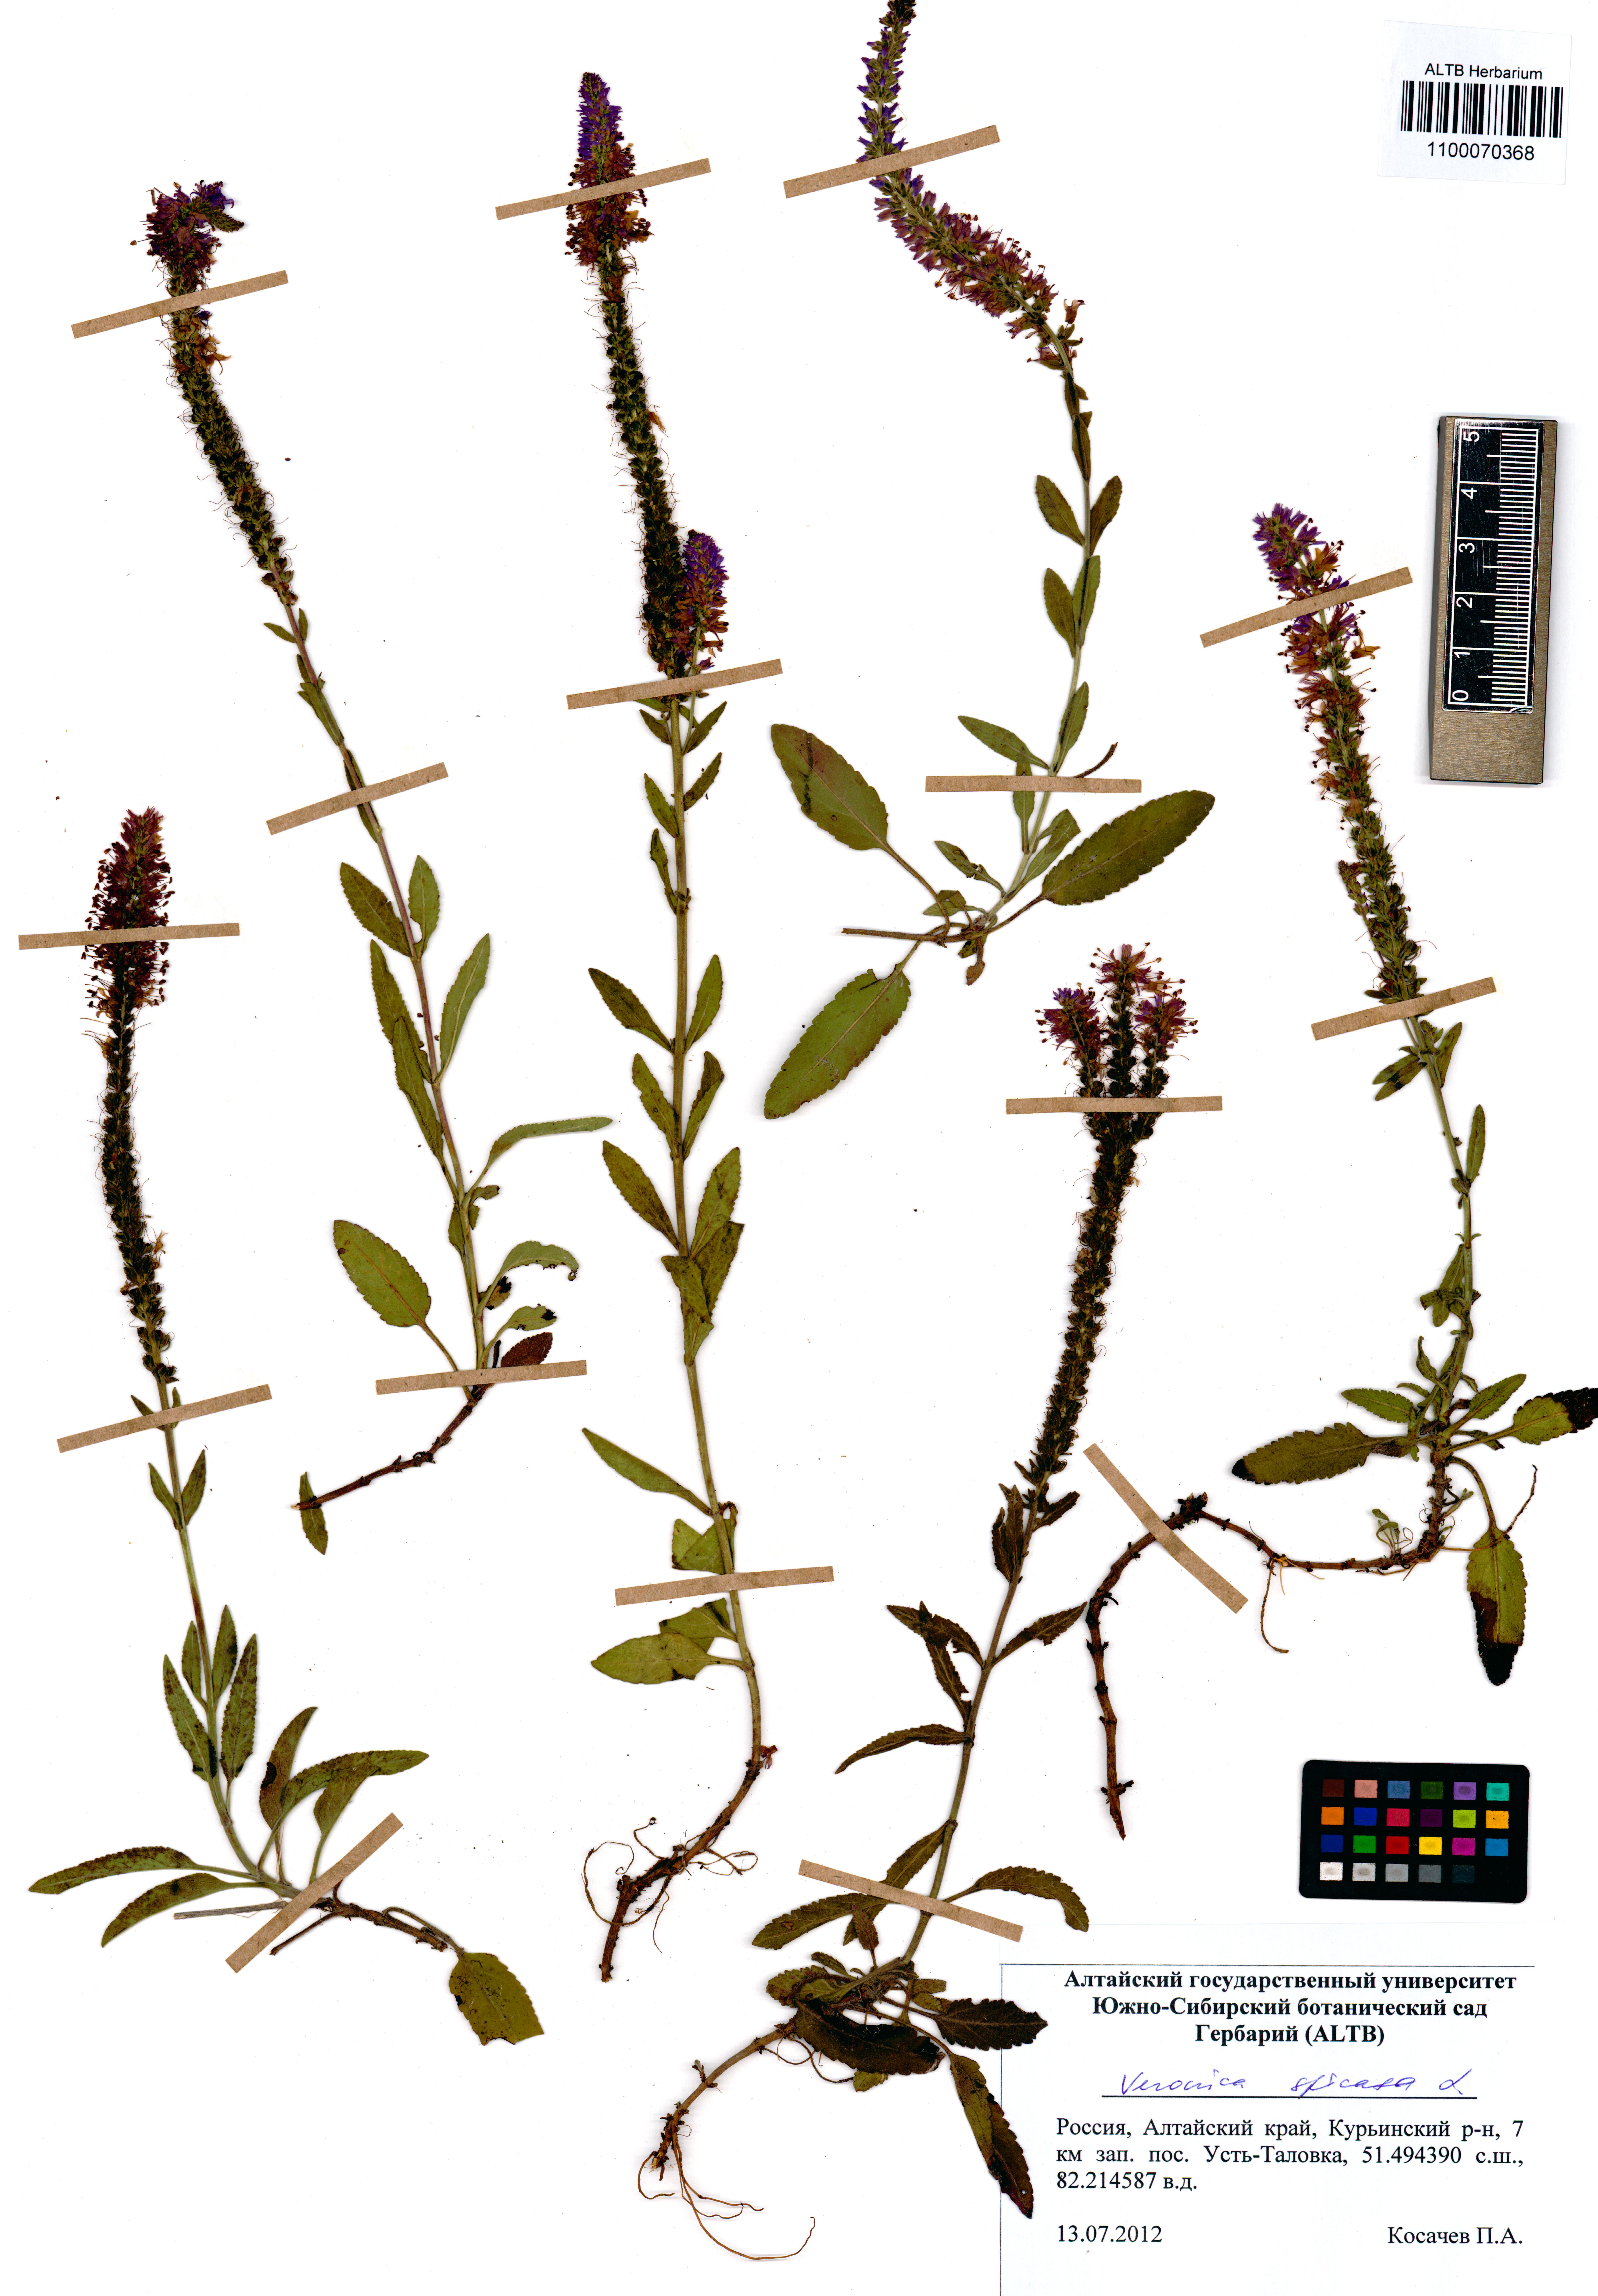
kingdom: Plantae
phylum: Tracheophyta
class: Magnoliopsida
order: Lamiales
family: Plantaginaceae
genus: Veronica
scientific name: Veronica longifolia
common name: Garden speedwell
